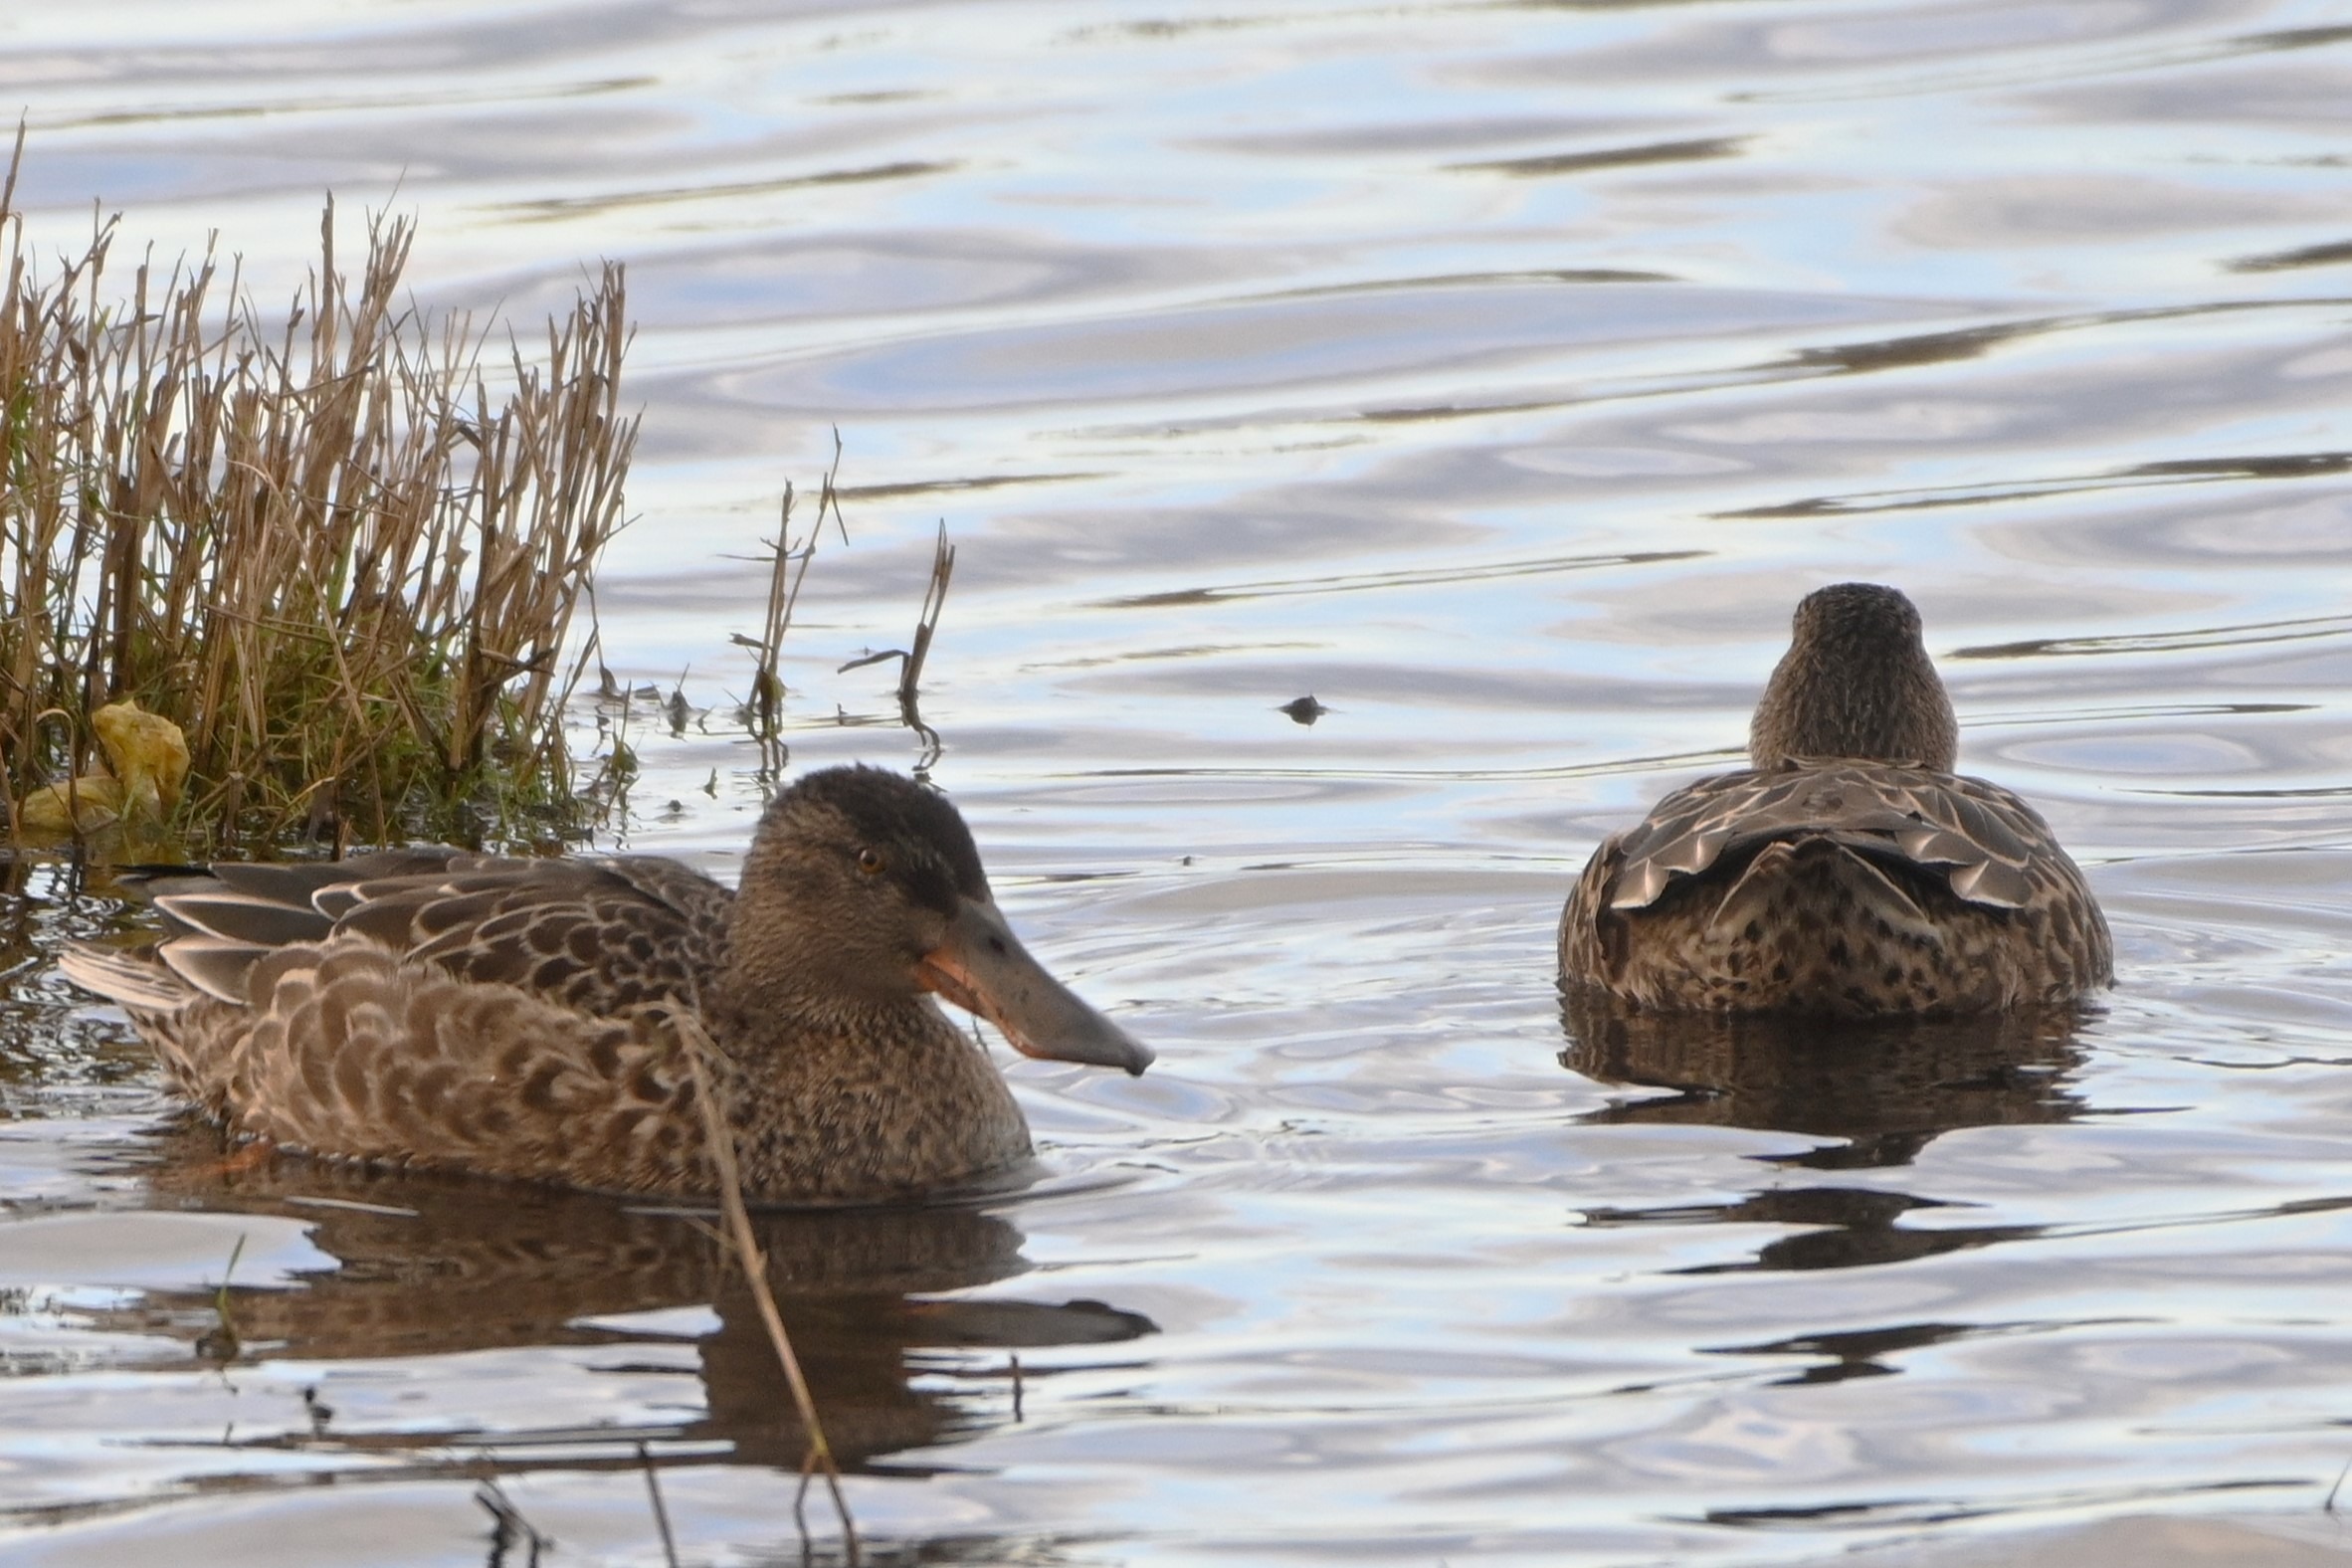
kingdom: Animalia
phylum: Chordata
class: Aves
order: Anseriformes
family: Anatidae
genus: Spatula
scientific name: Spatula clypeata
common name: Skeand
